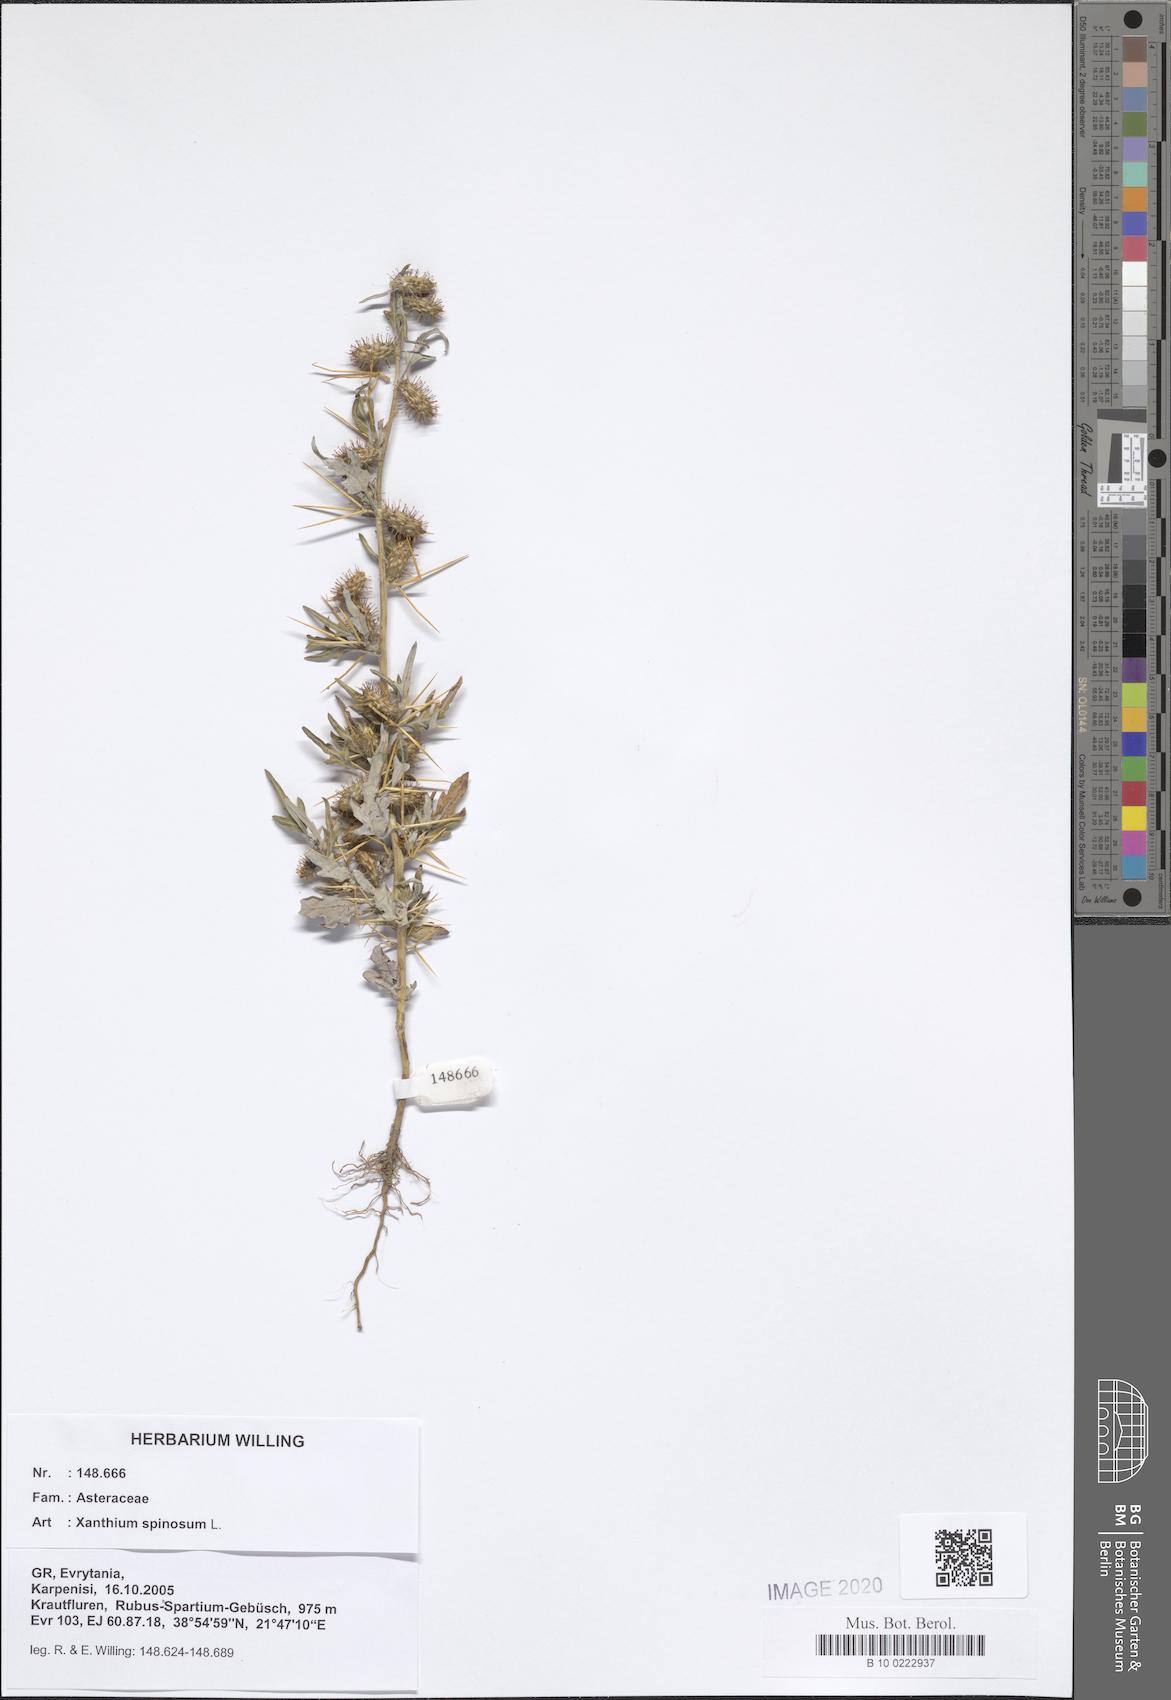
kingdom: Plantae
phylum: Tracheophyta
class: Magnoliopsida
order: Asterales
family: Asteraceae
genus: Xanthium
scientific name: Xanthium spinosum
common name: Spiny cocklebur
